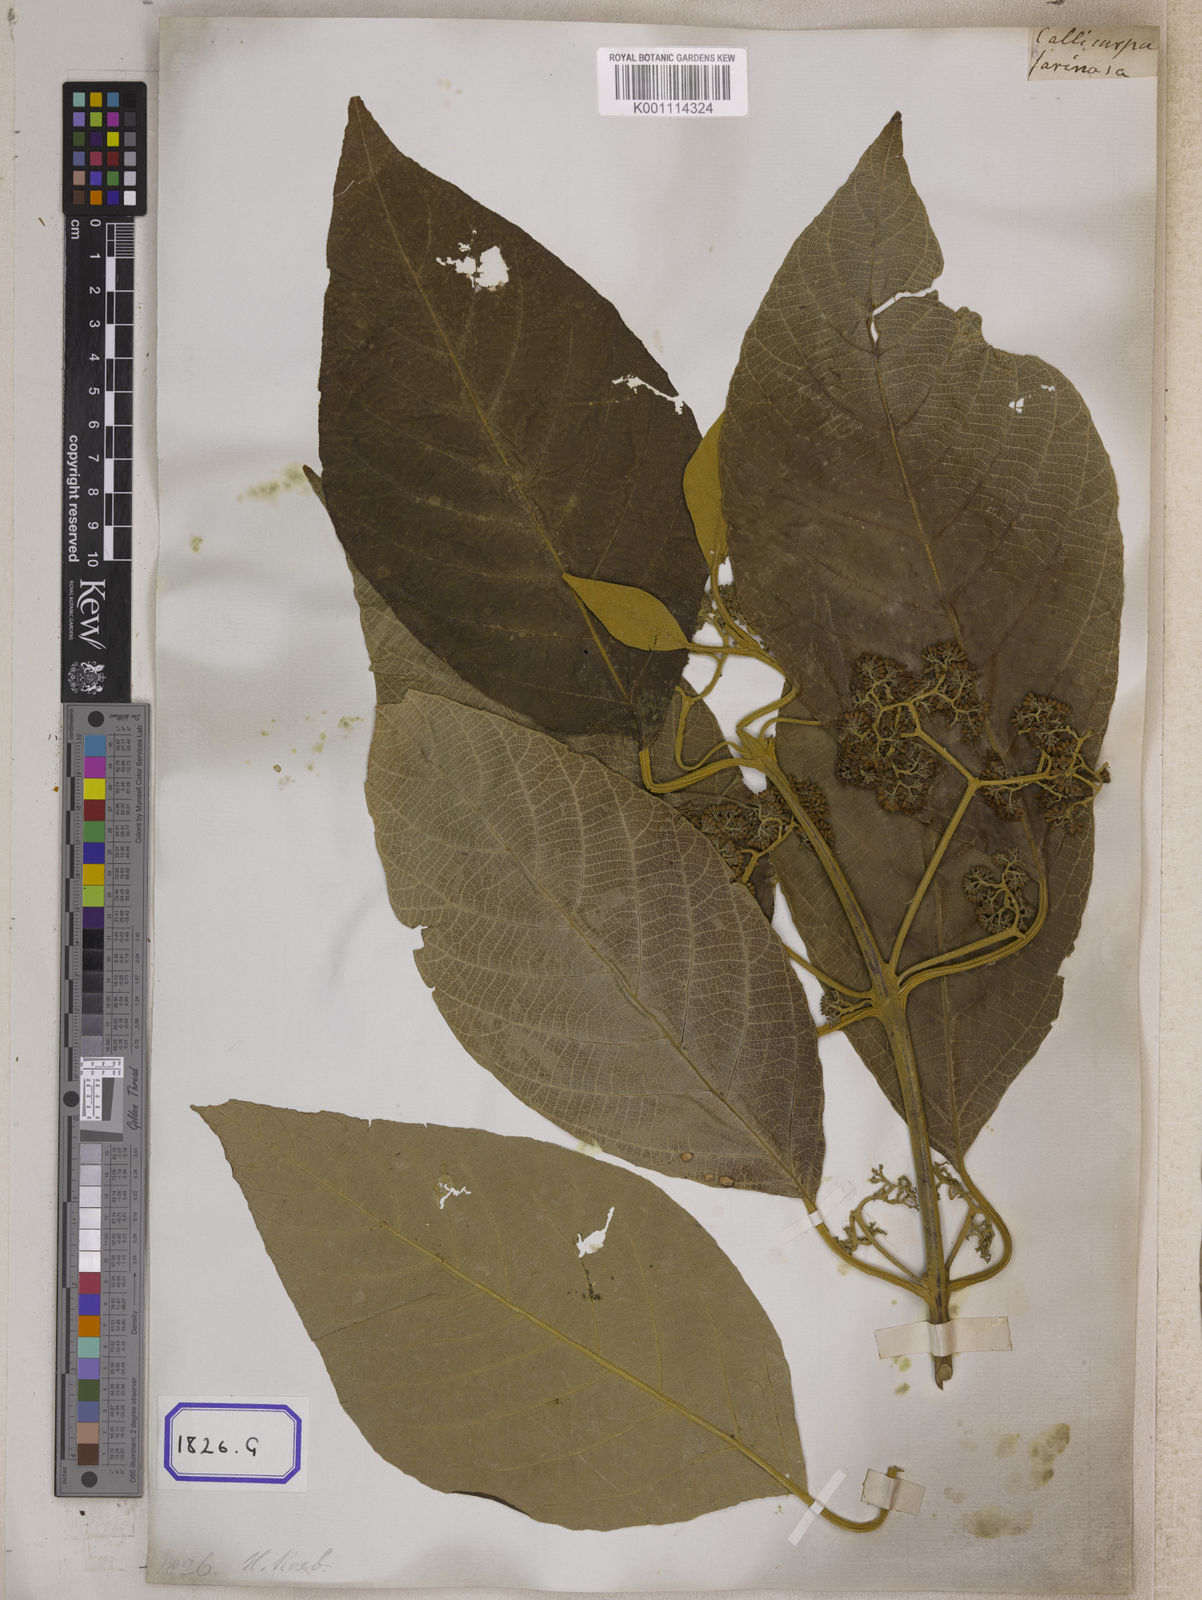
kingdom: Plantae
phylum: Tracheophyta
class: Magnoliopsida
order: Lamiales
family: Lamiaceae
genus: Callicarpa
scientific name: Callicarpa arborea
